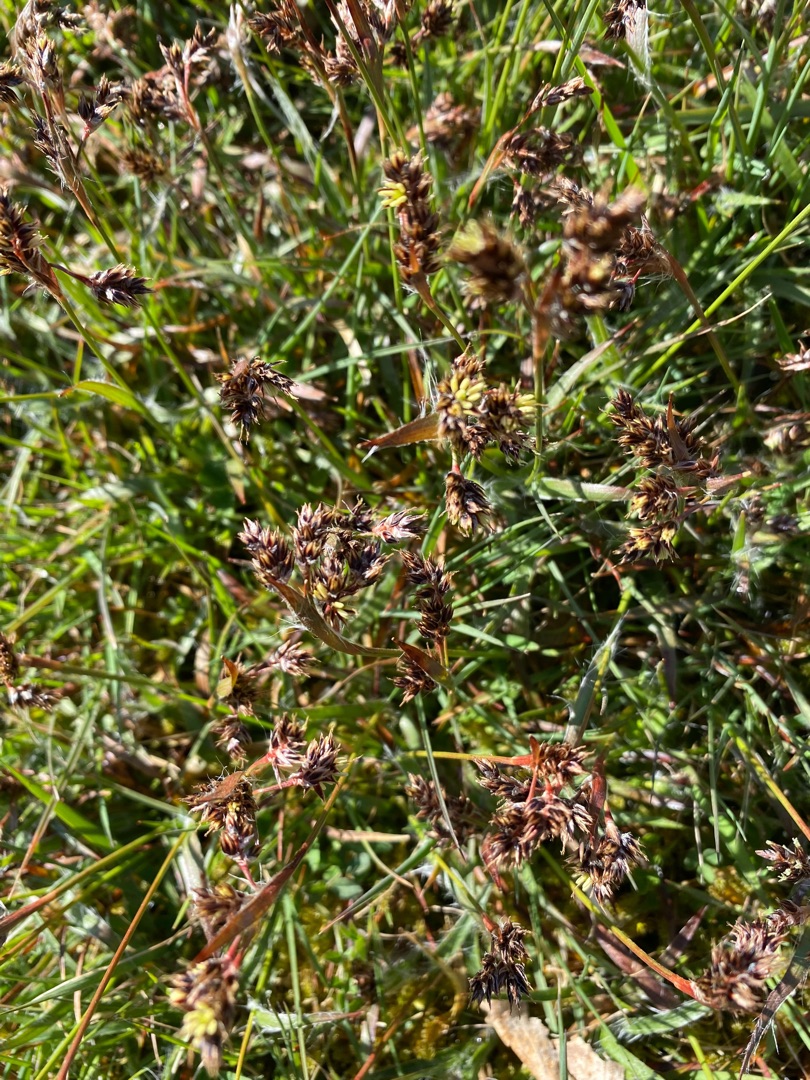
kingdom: Plantae
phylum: Tracheophyta
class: Liliopsida
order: Poales
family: Juncaceae
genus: Luzula
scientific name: Luzula campestris
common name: Mark-frytle
